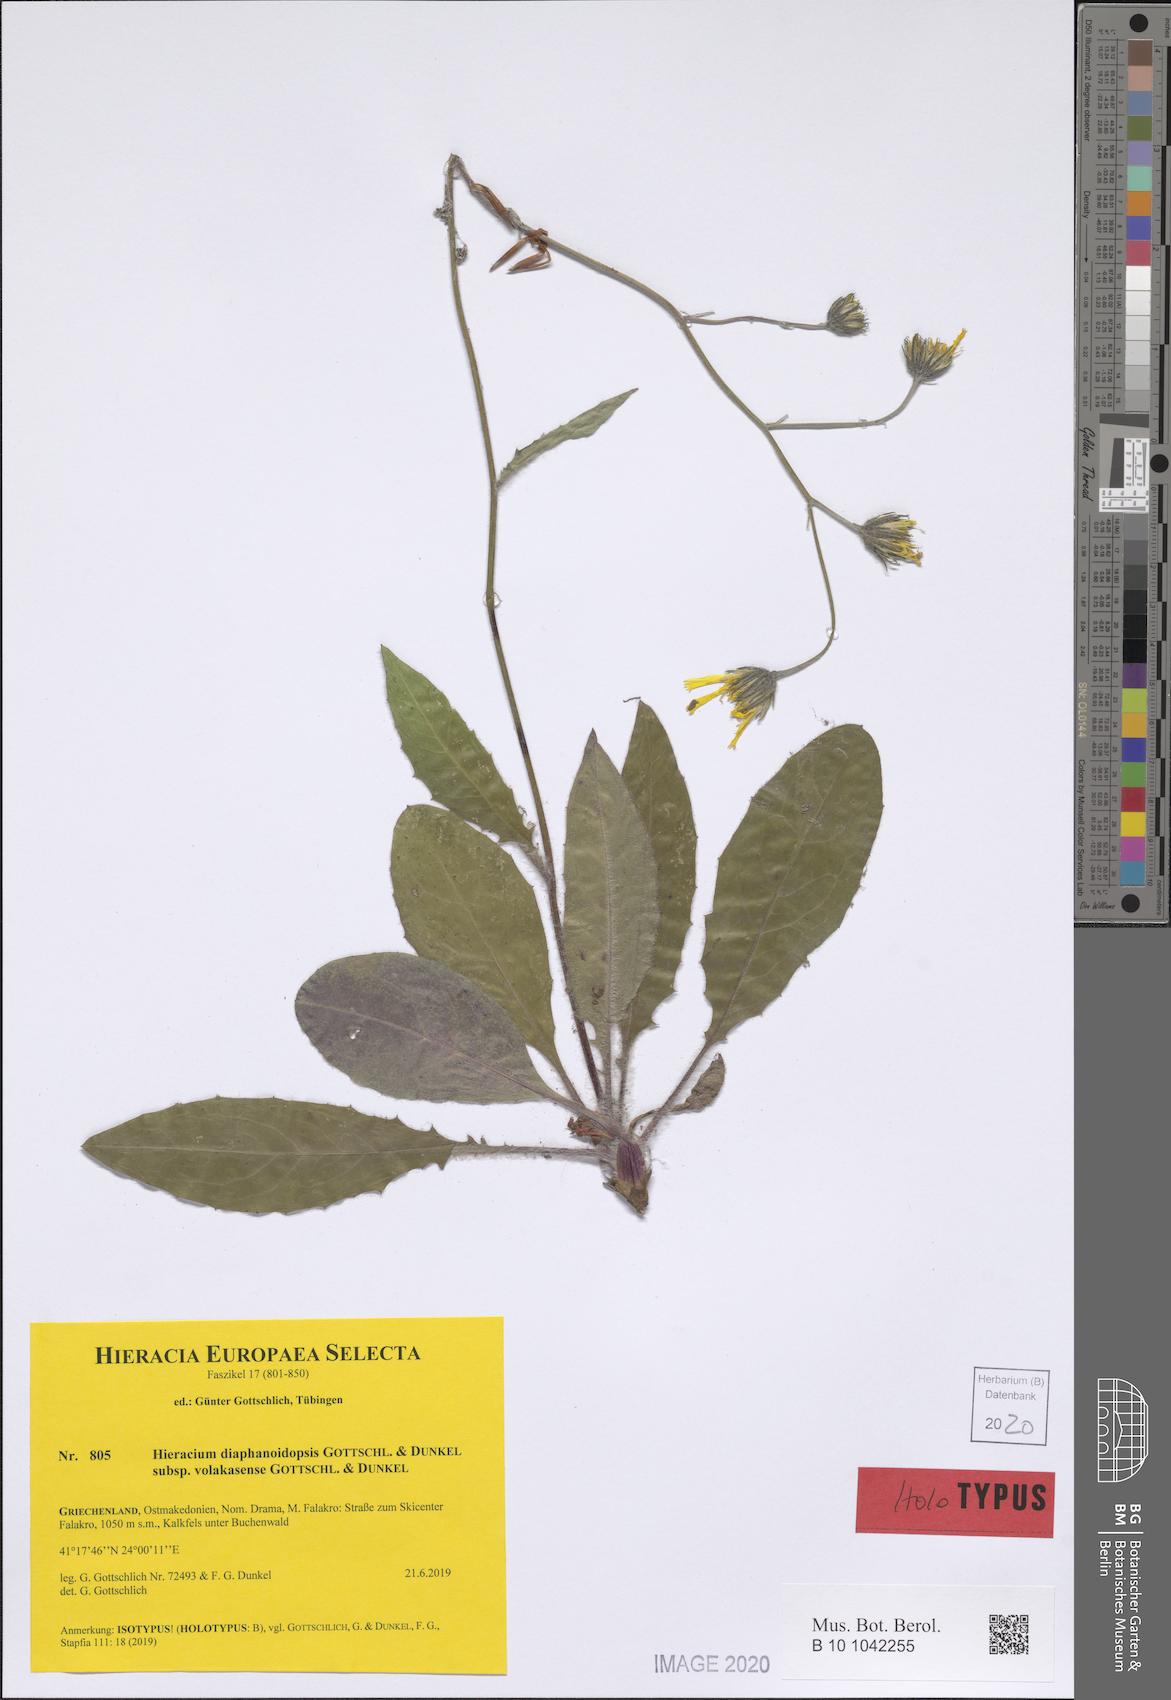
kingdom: Plantae
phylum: Tracheophyta
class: Magnoliopsida
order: Asterales
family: Asteraceae
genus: Hieracium
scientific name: Hieracium diaphanoidopsis
